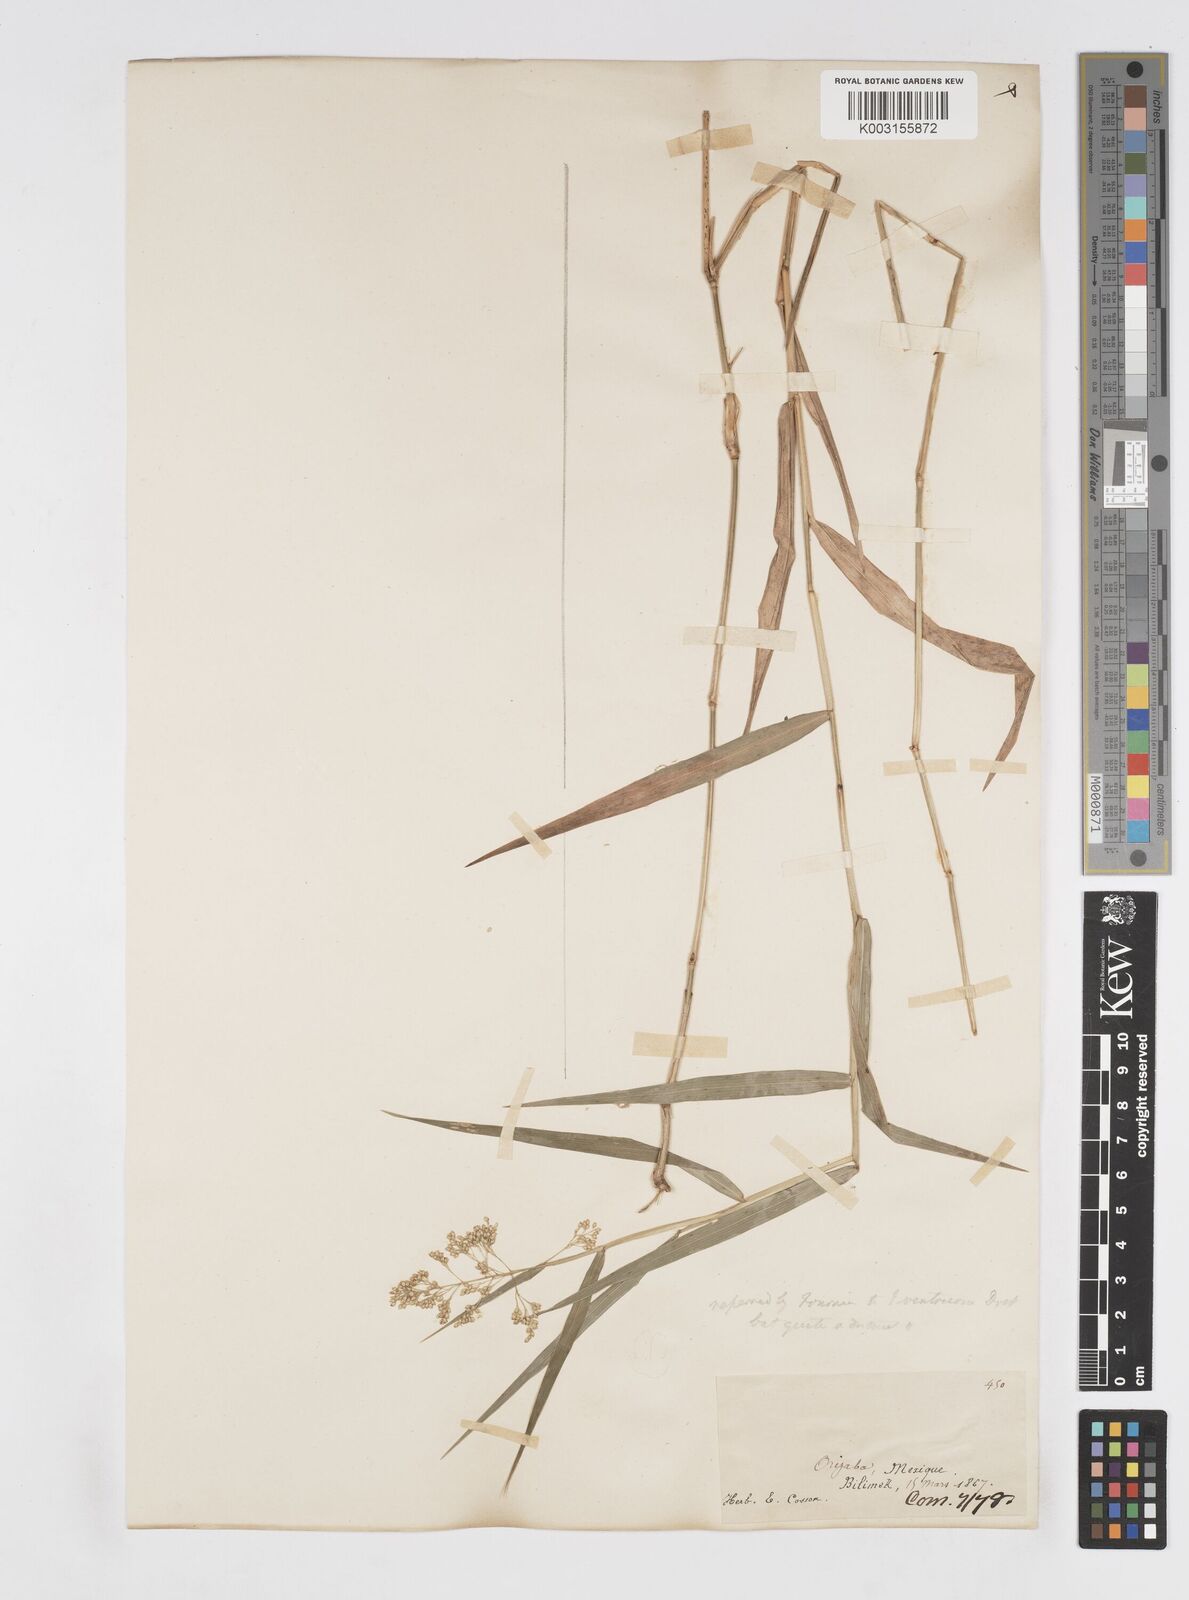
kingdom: Plantae
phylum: Tracheophyta
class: Liliopsida
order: Poales
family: Poaceae
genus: Isachne
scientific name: Isachne arundinacea
